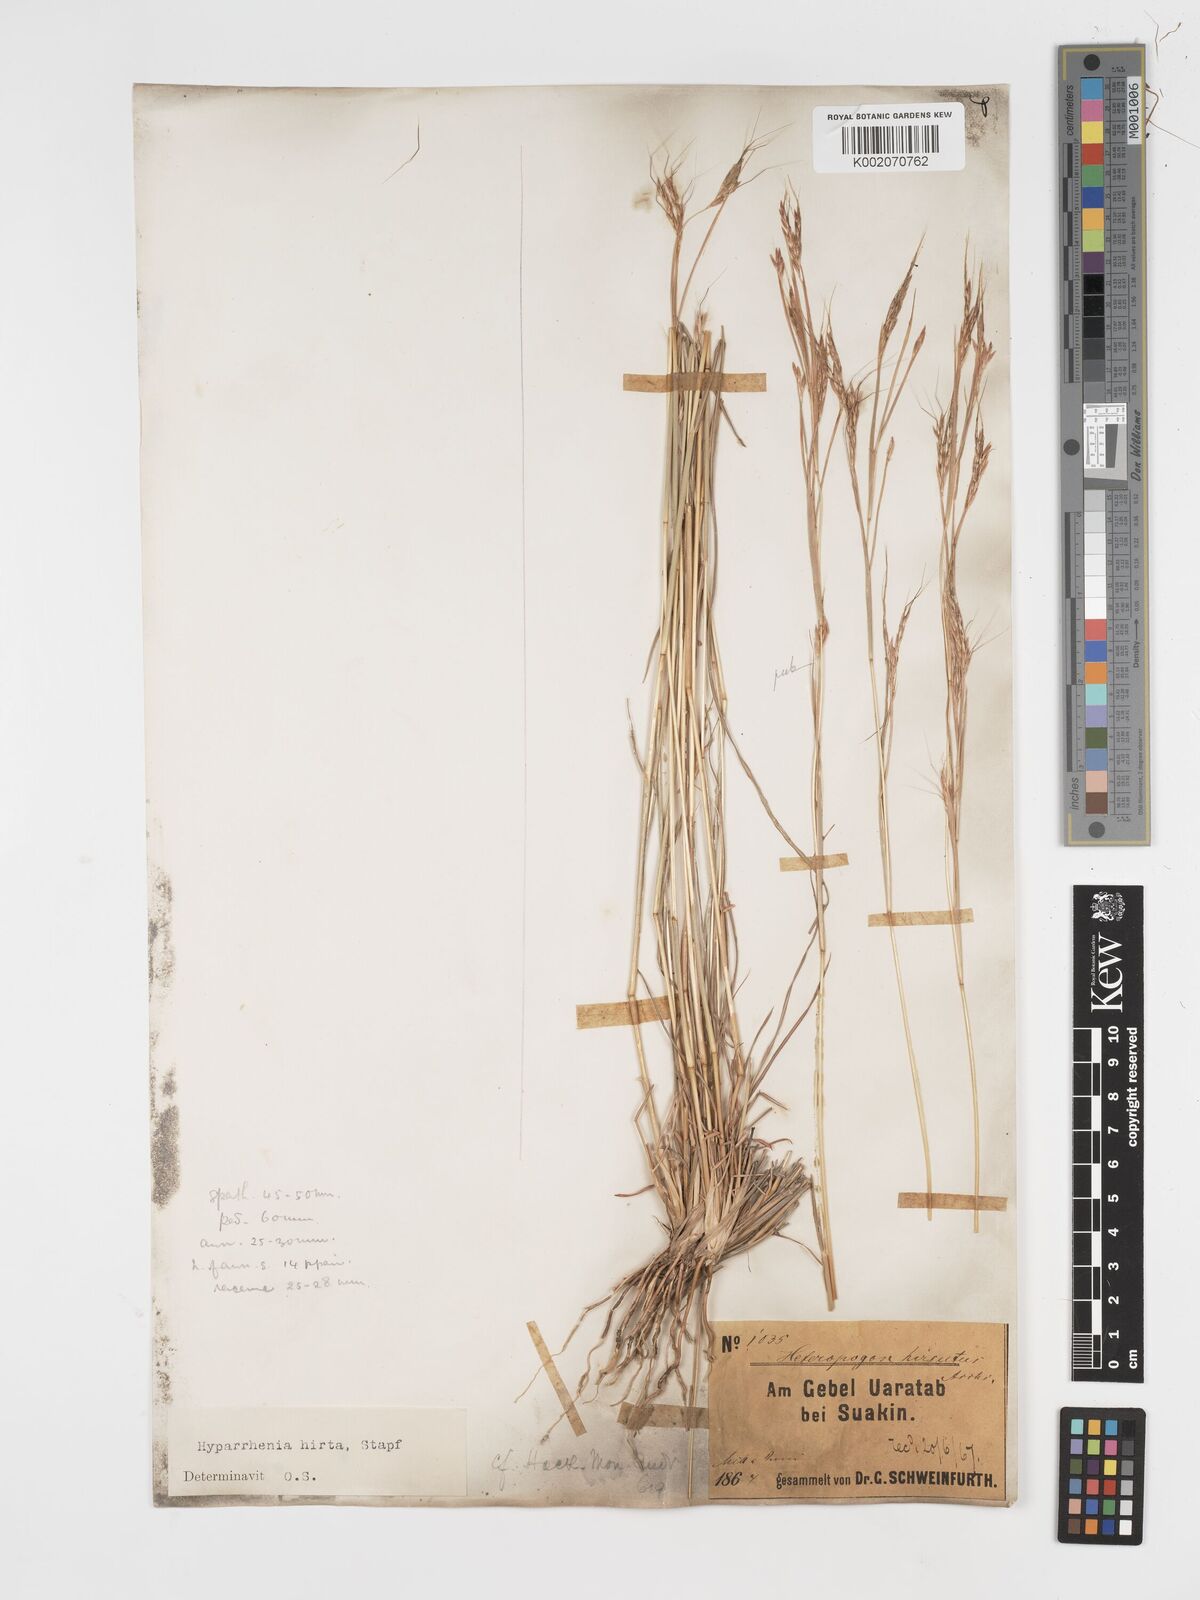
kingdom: Plantae
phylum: Tracheophyta
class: Liliopsida
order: Poales
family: Poaceae
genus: Hyparrhenia
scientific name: Hyparrhenia hirta
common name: Thatching grass
